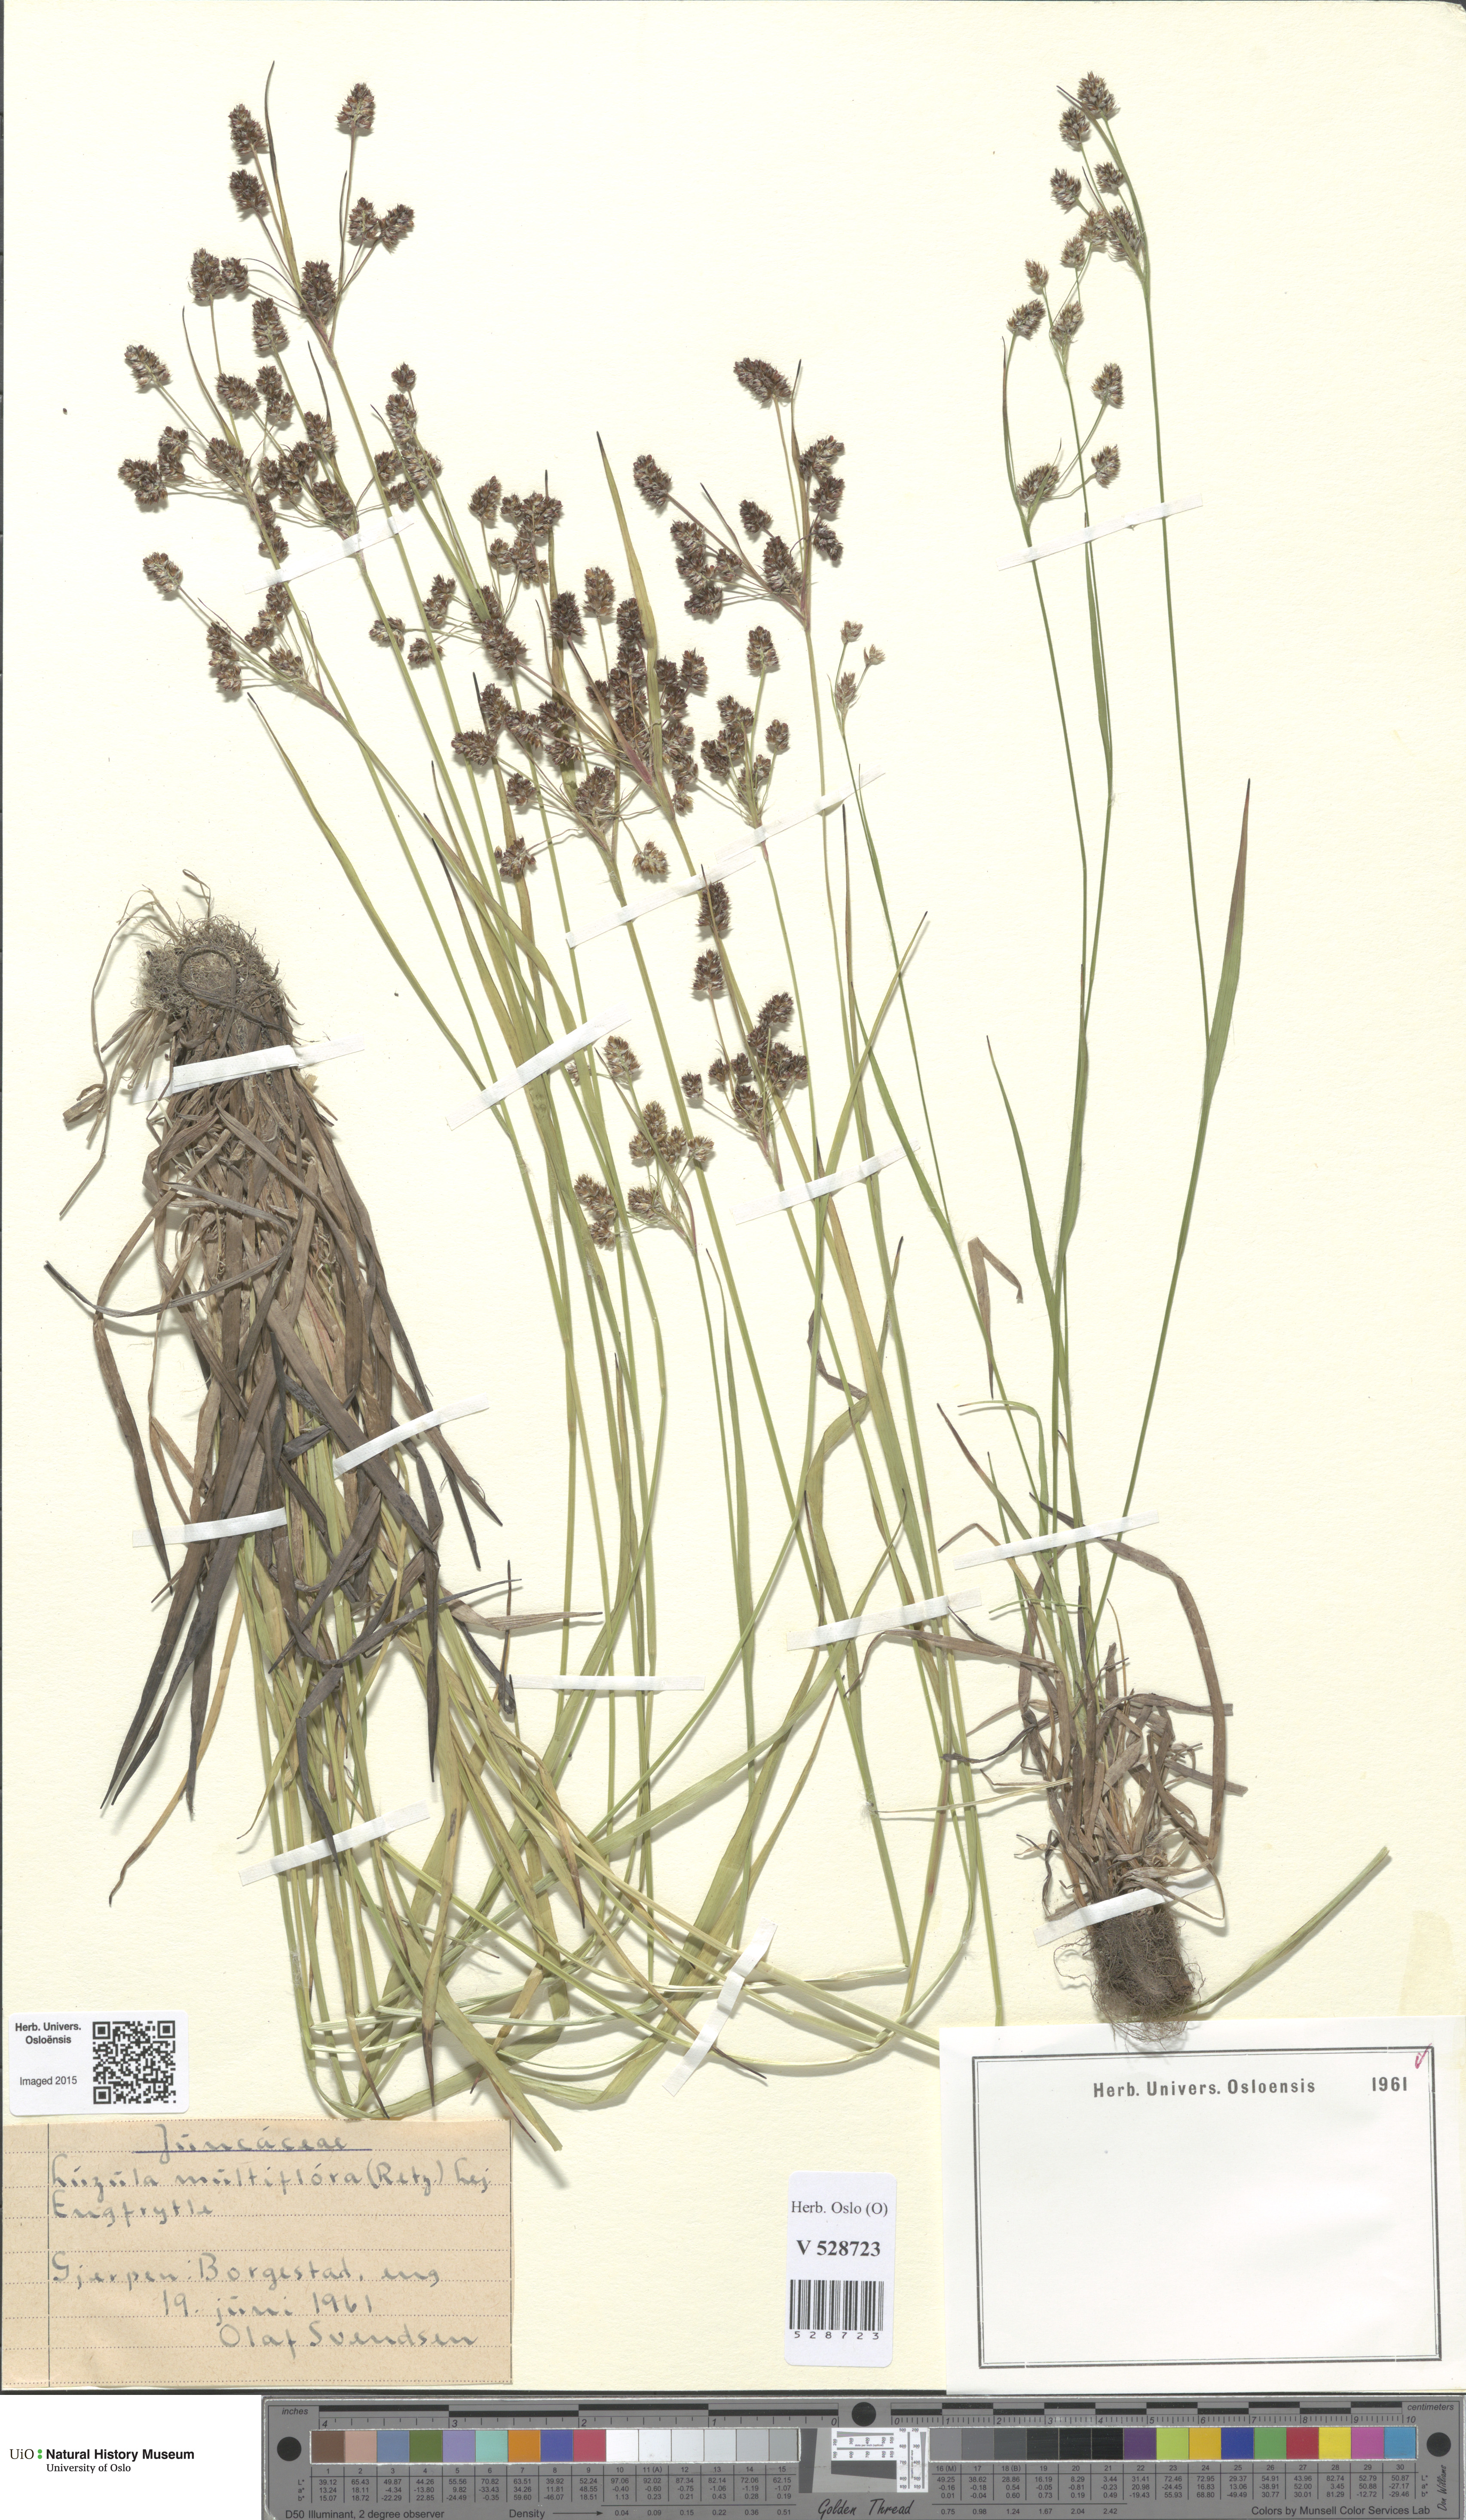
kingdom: Plantae
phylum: Tracheophyta
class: Liliopsida
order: Poales
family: Juncaceae
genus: Luzula
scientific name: Luzula multiflora
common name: Heath wood-rush
